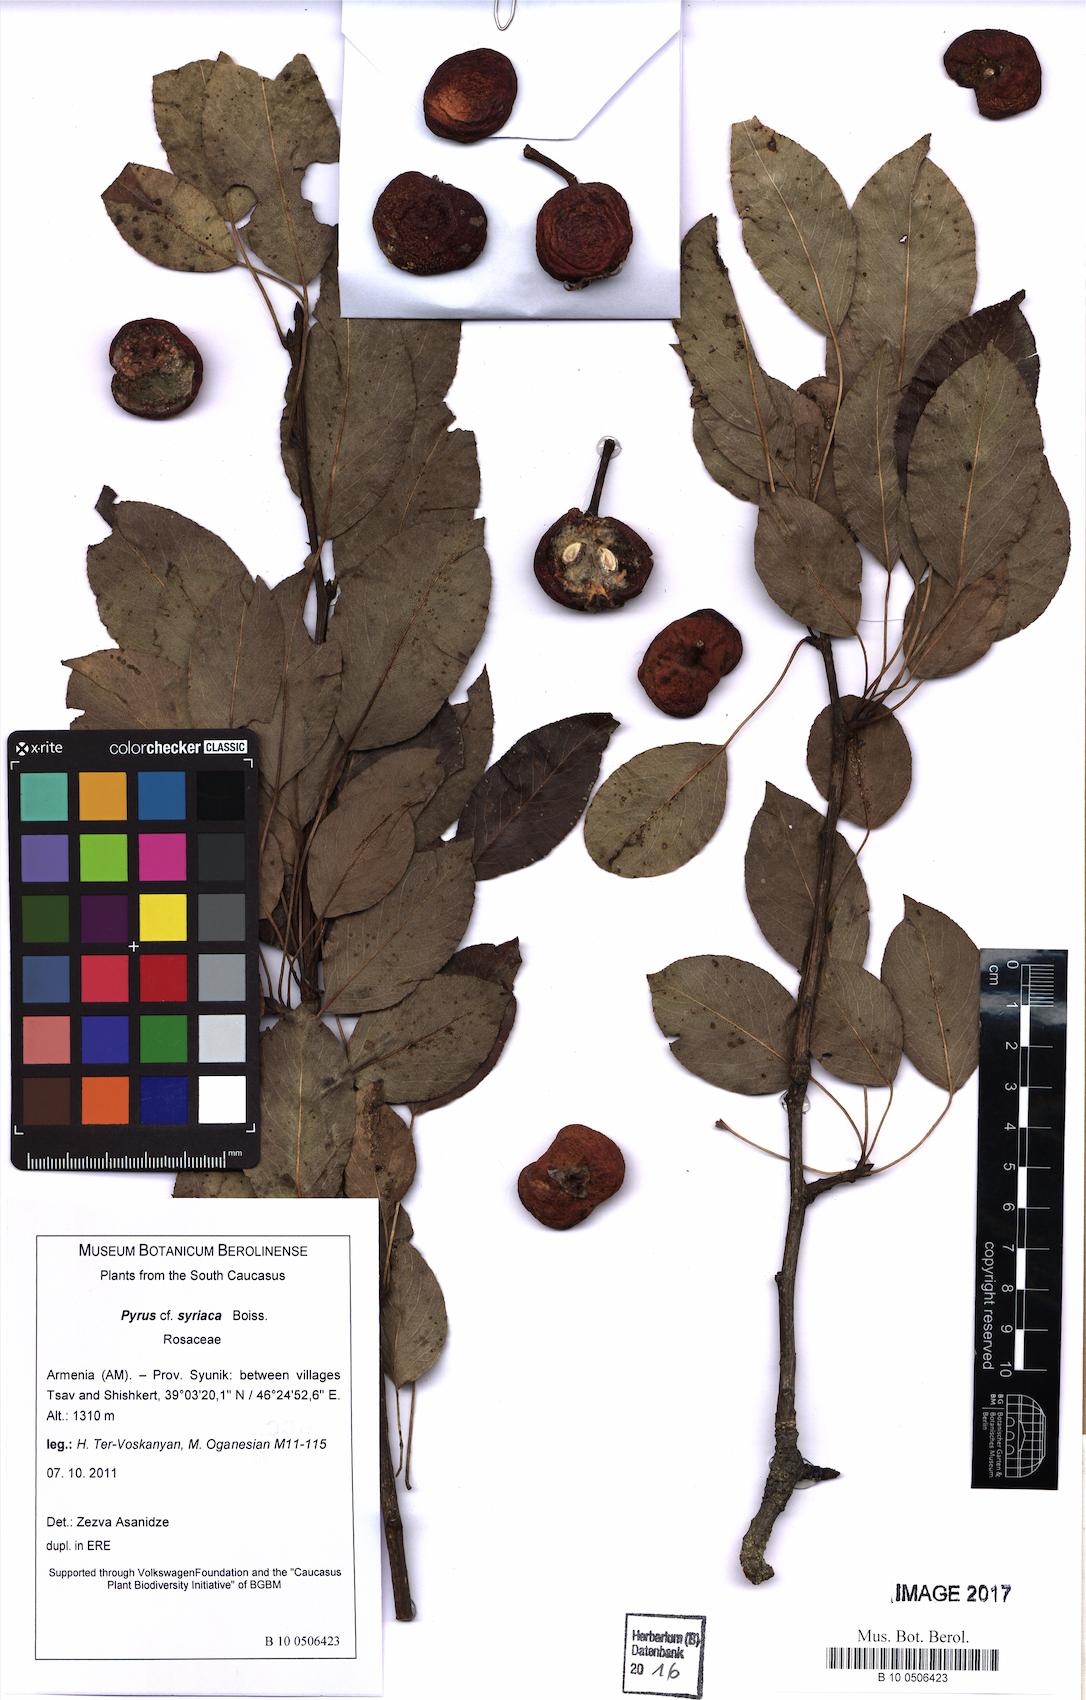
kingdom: Plantae
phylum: Tracheophyta
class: Magnoliopsida
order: Rosales
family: Rosaceae
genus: Pyrus
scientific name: Pyrus syriaca
